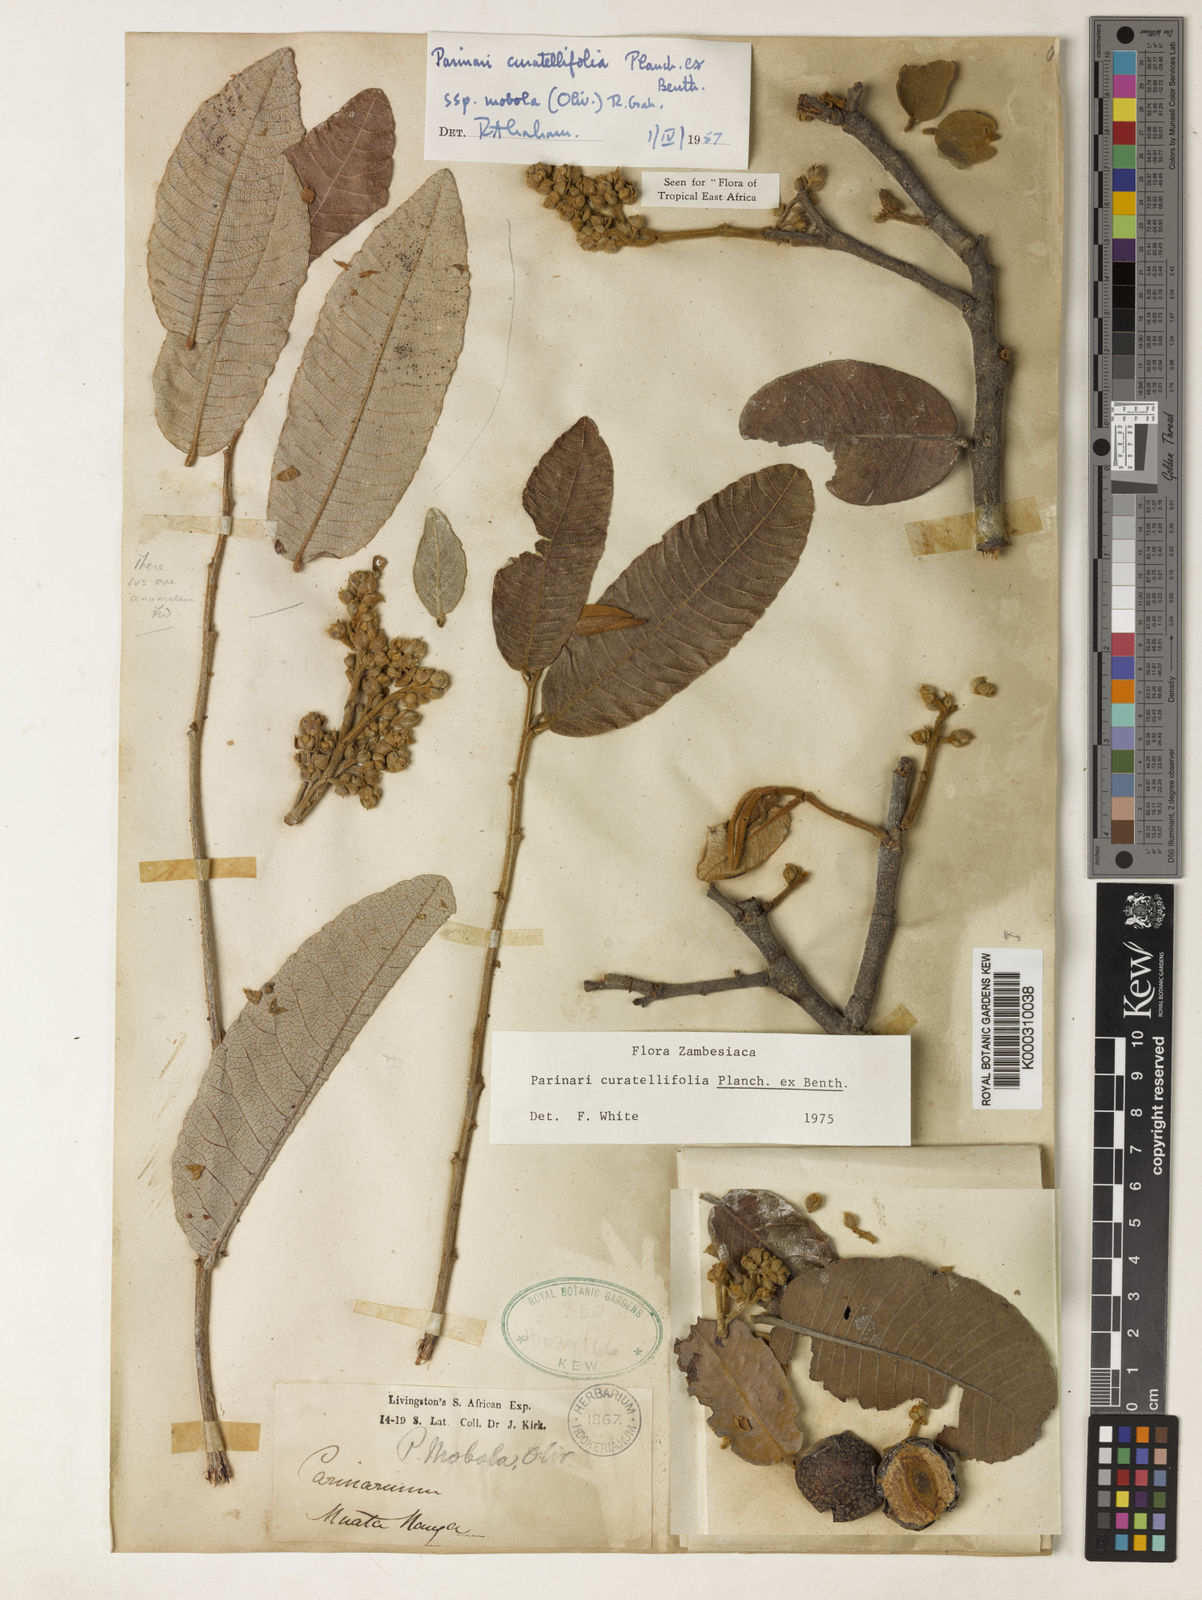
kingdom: Plantae
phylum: Tracheophyta
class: Magnoliopsida
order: Malpighiales
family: Chrysobalanaceae
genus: Parinari
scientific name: Parinari curatellifolia
